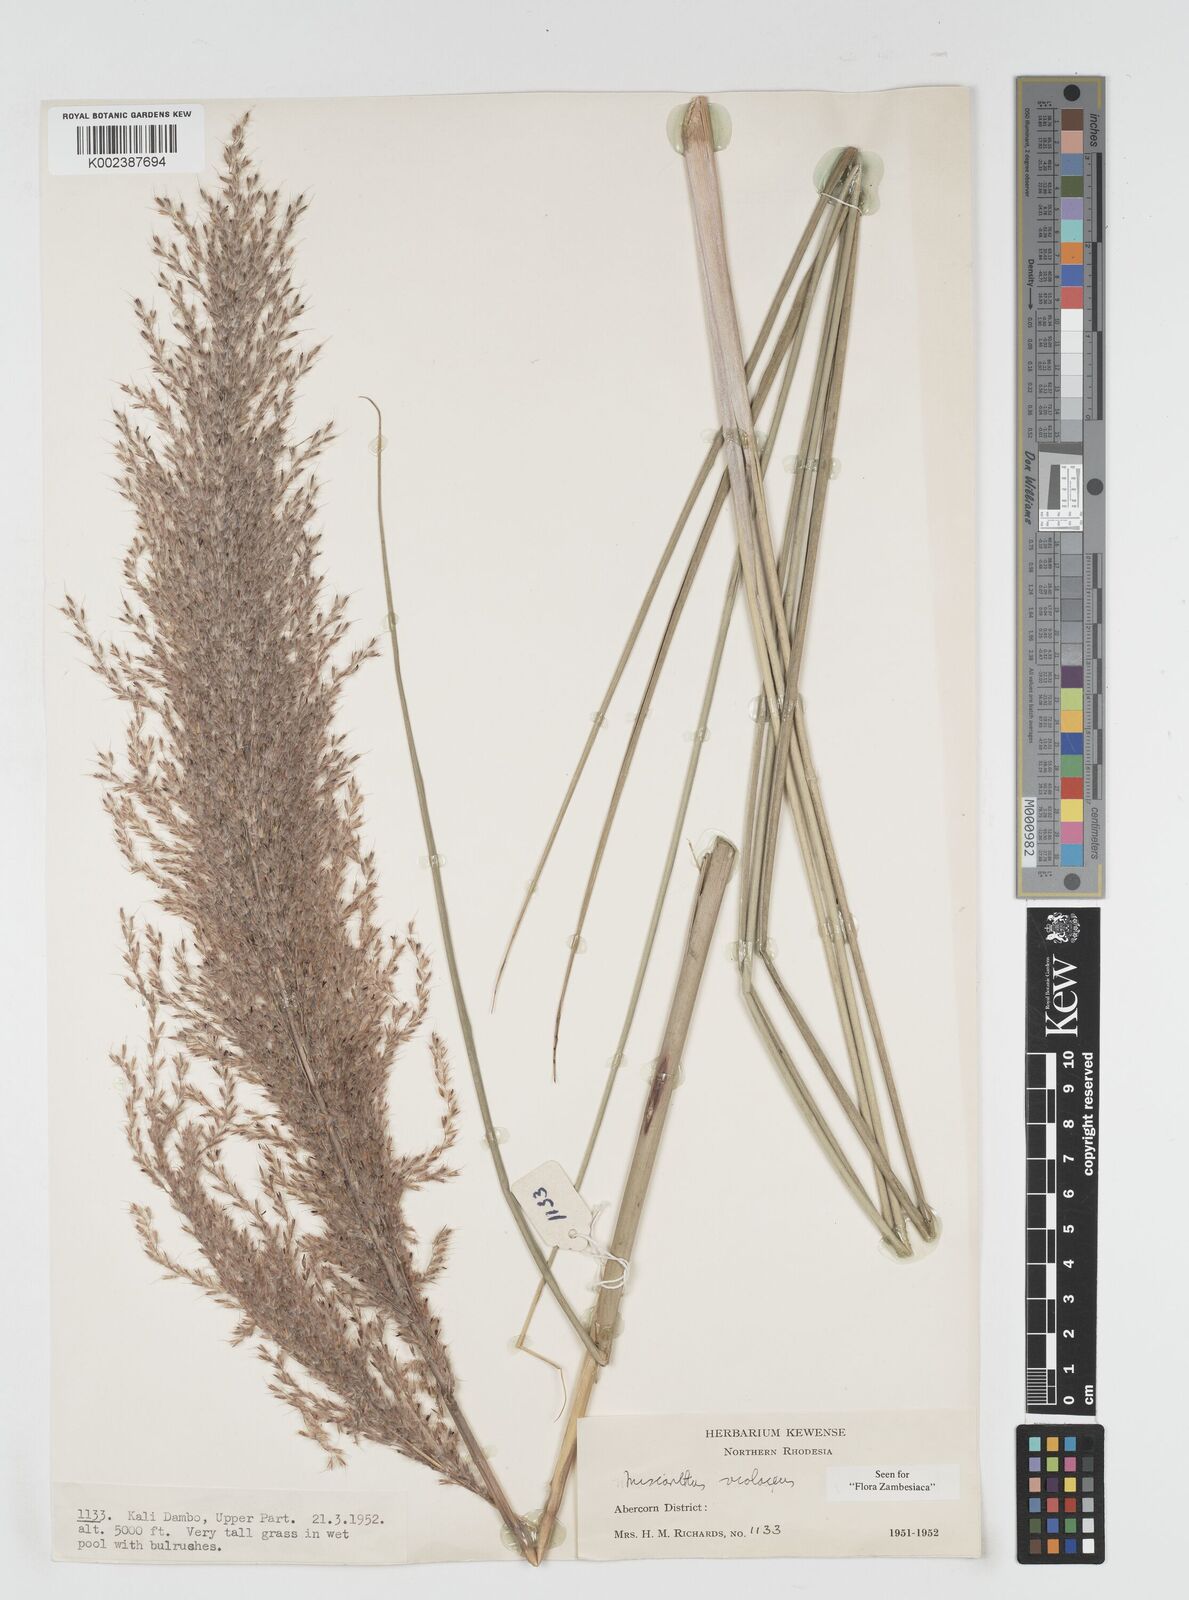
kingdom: Plantae
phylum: Tracheophyta
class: Liliopsida
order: Poales
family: Poaceae
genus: Miscanthidium
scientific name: Miscanthidium violaceum
